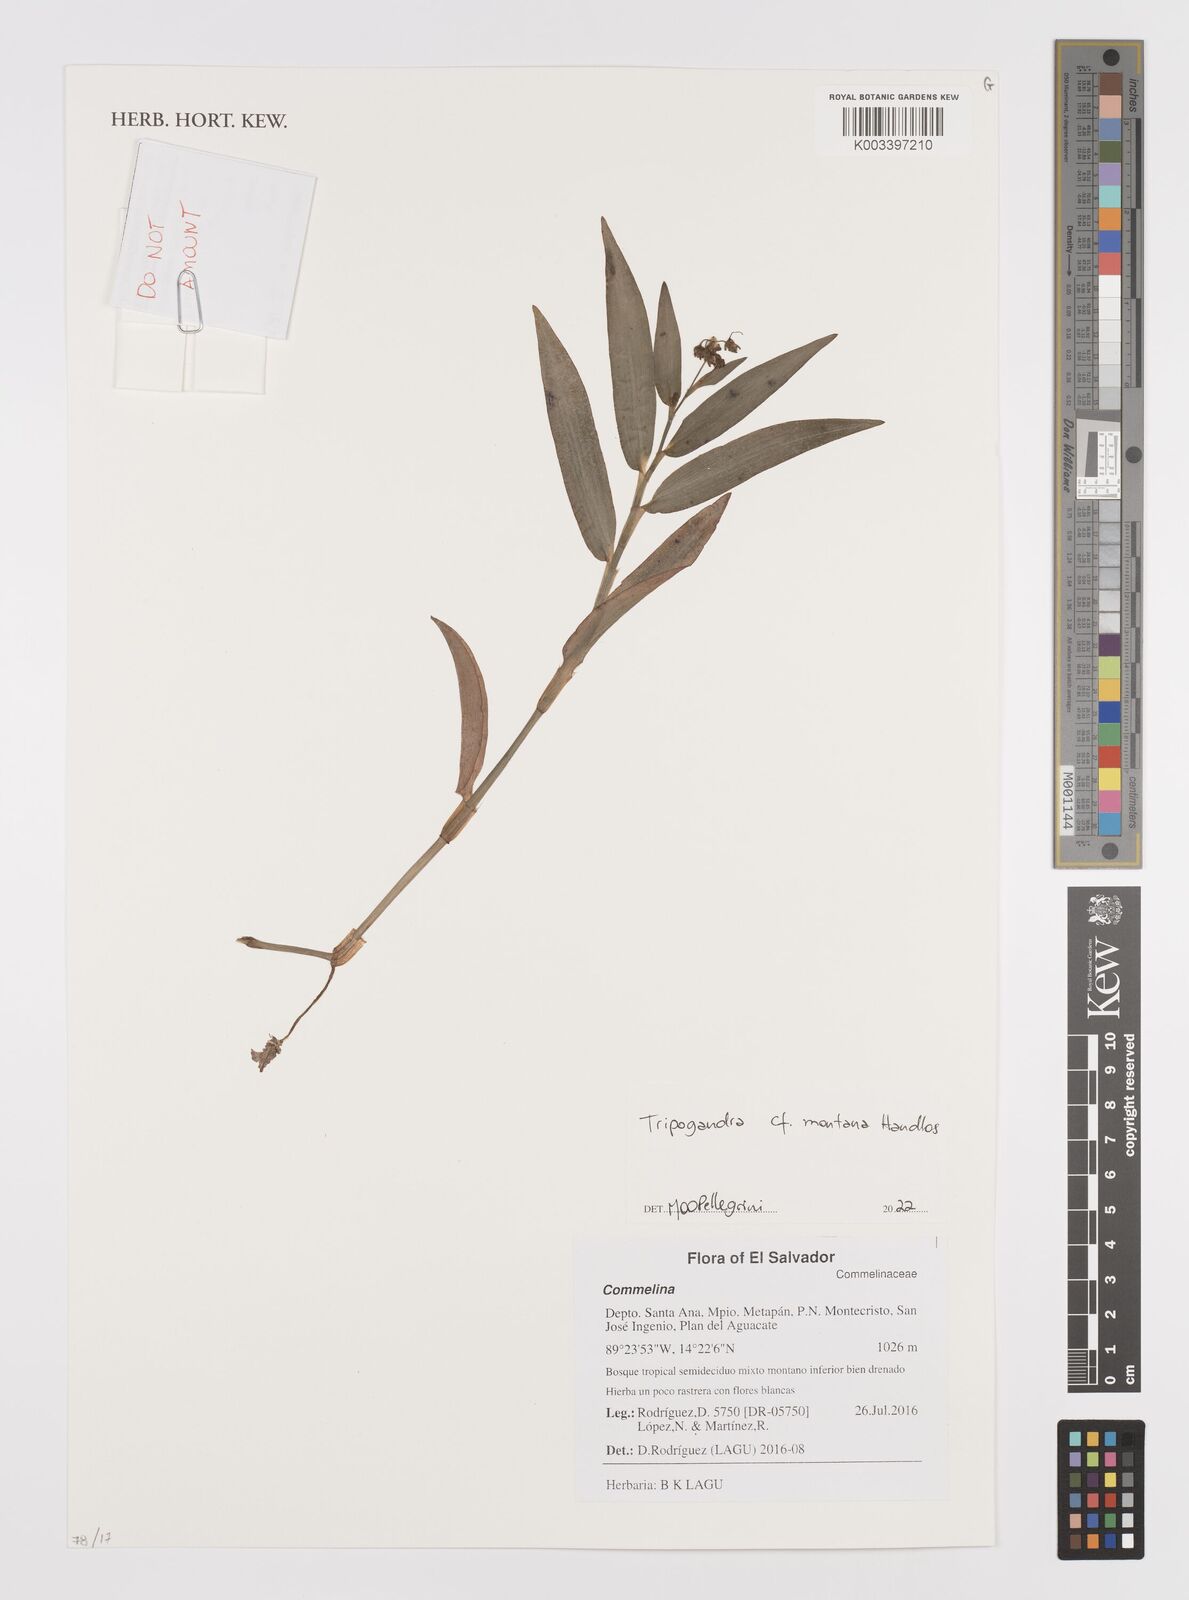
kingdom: Plantae
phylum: Tracheophyta
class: Liliopsida
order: Commelinales
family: Commelinaceae
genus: Callisia
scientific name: Callisia montana
